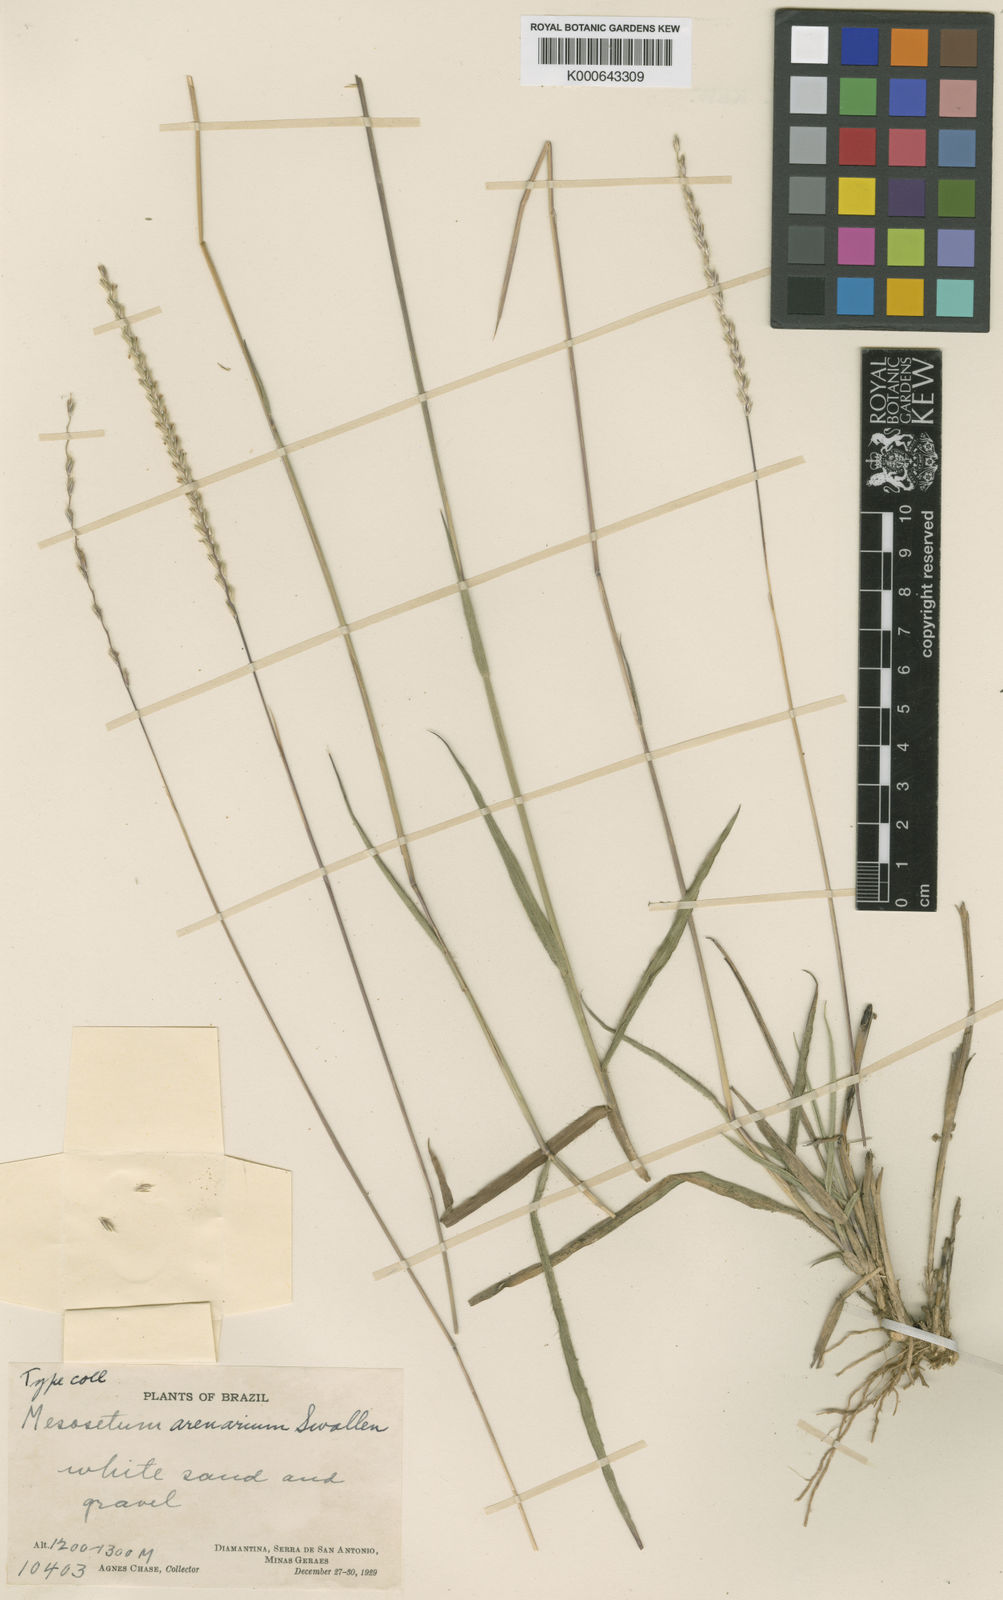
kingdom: Plantae
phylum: Tracheophyta
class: Liliopsida
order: Poales
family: Poaceae
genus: Mesosetum
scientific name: Mesosetum arenarium
